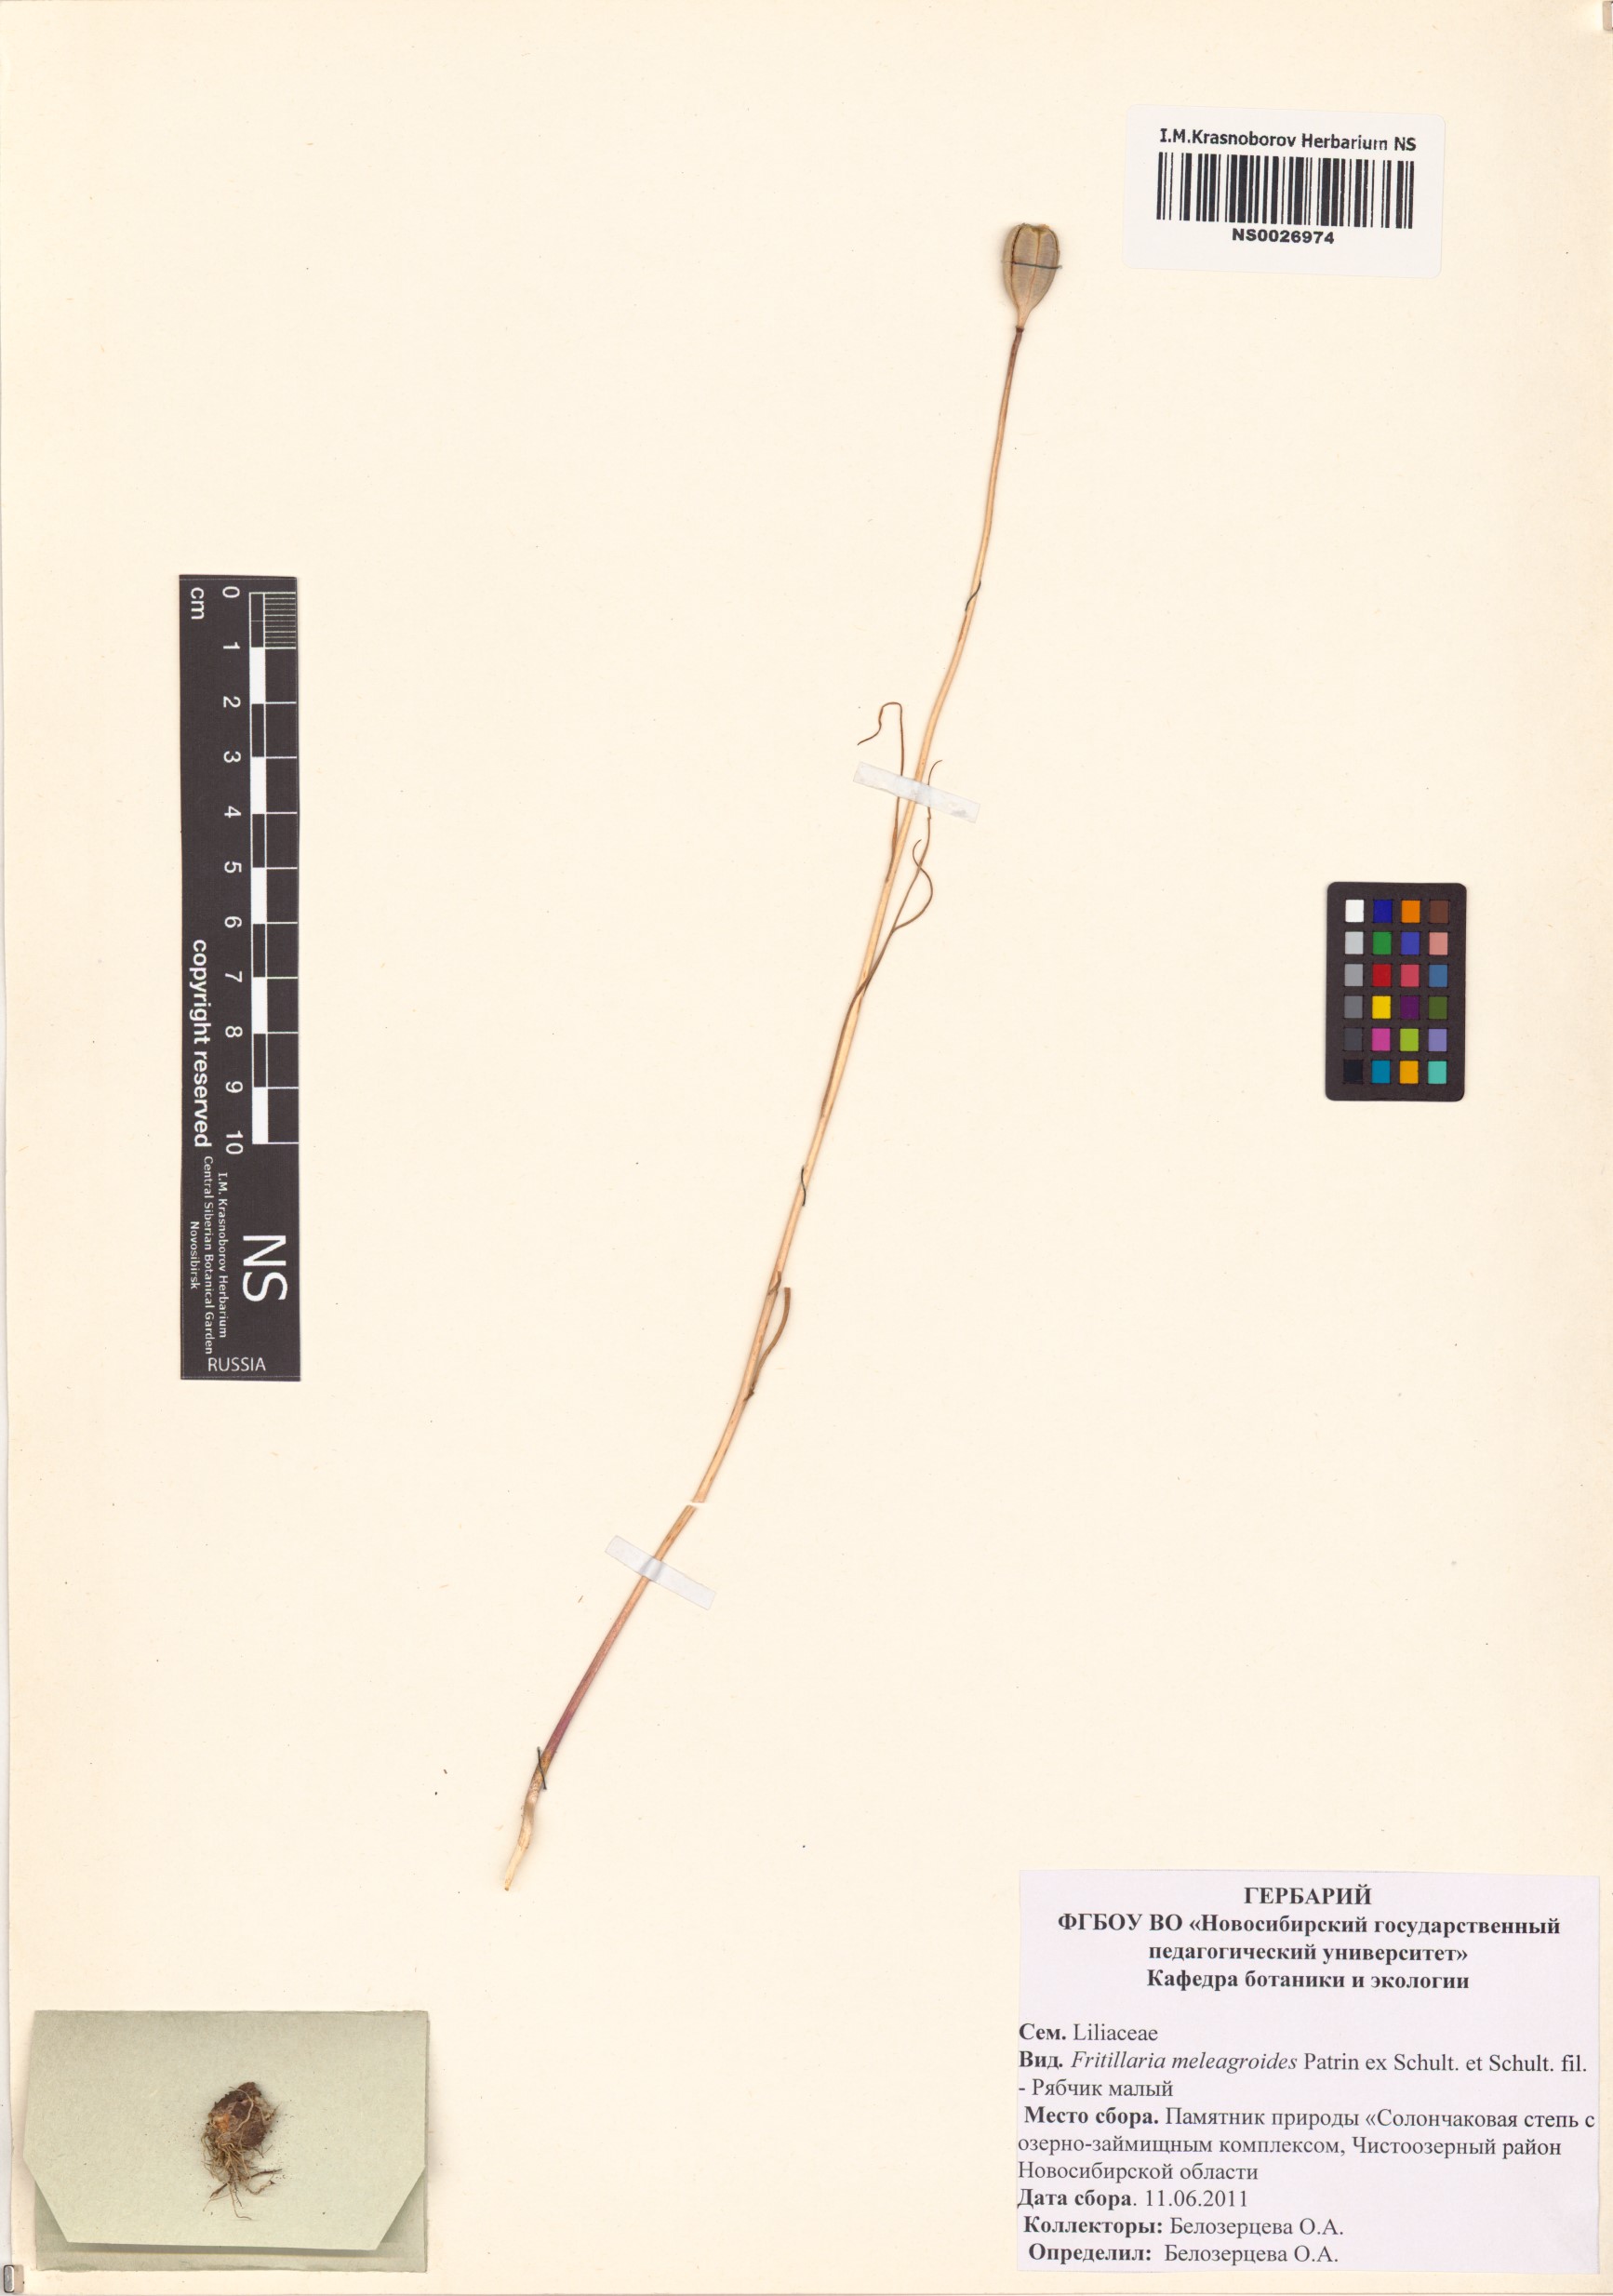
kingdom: Plantae
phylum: Tracheophyta
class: Liliopsida
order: Liliales
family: Liliaceae
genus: Fritillaria
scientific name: Fritillaria meleagroides
